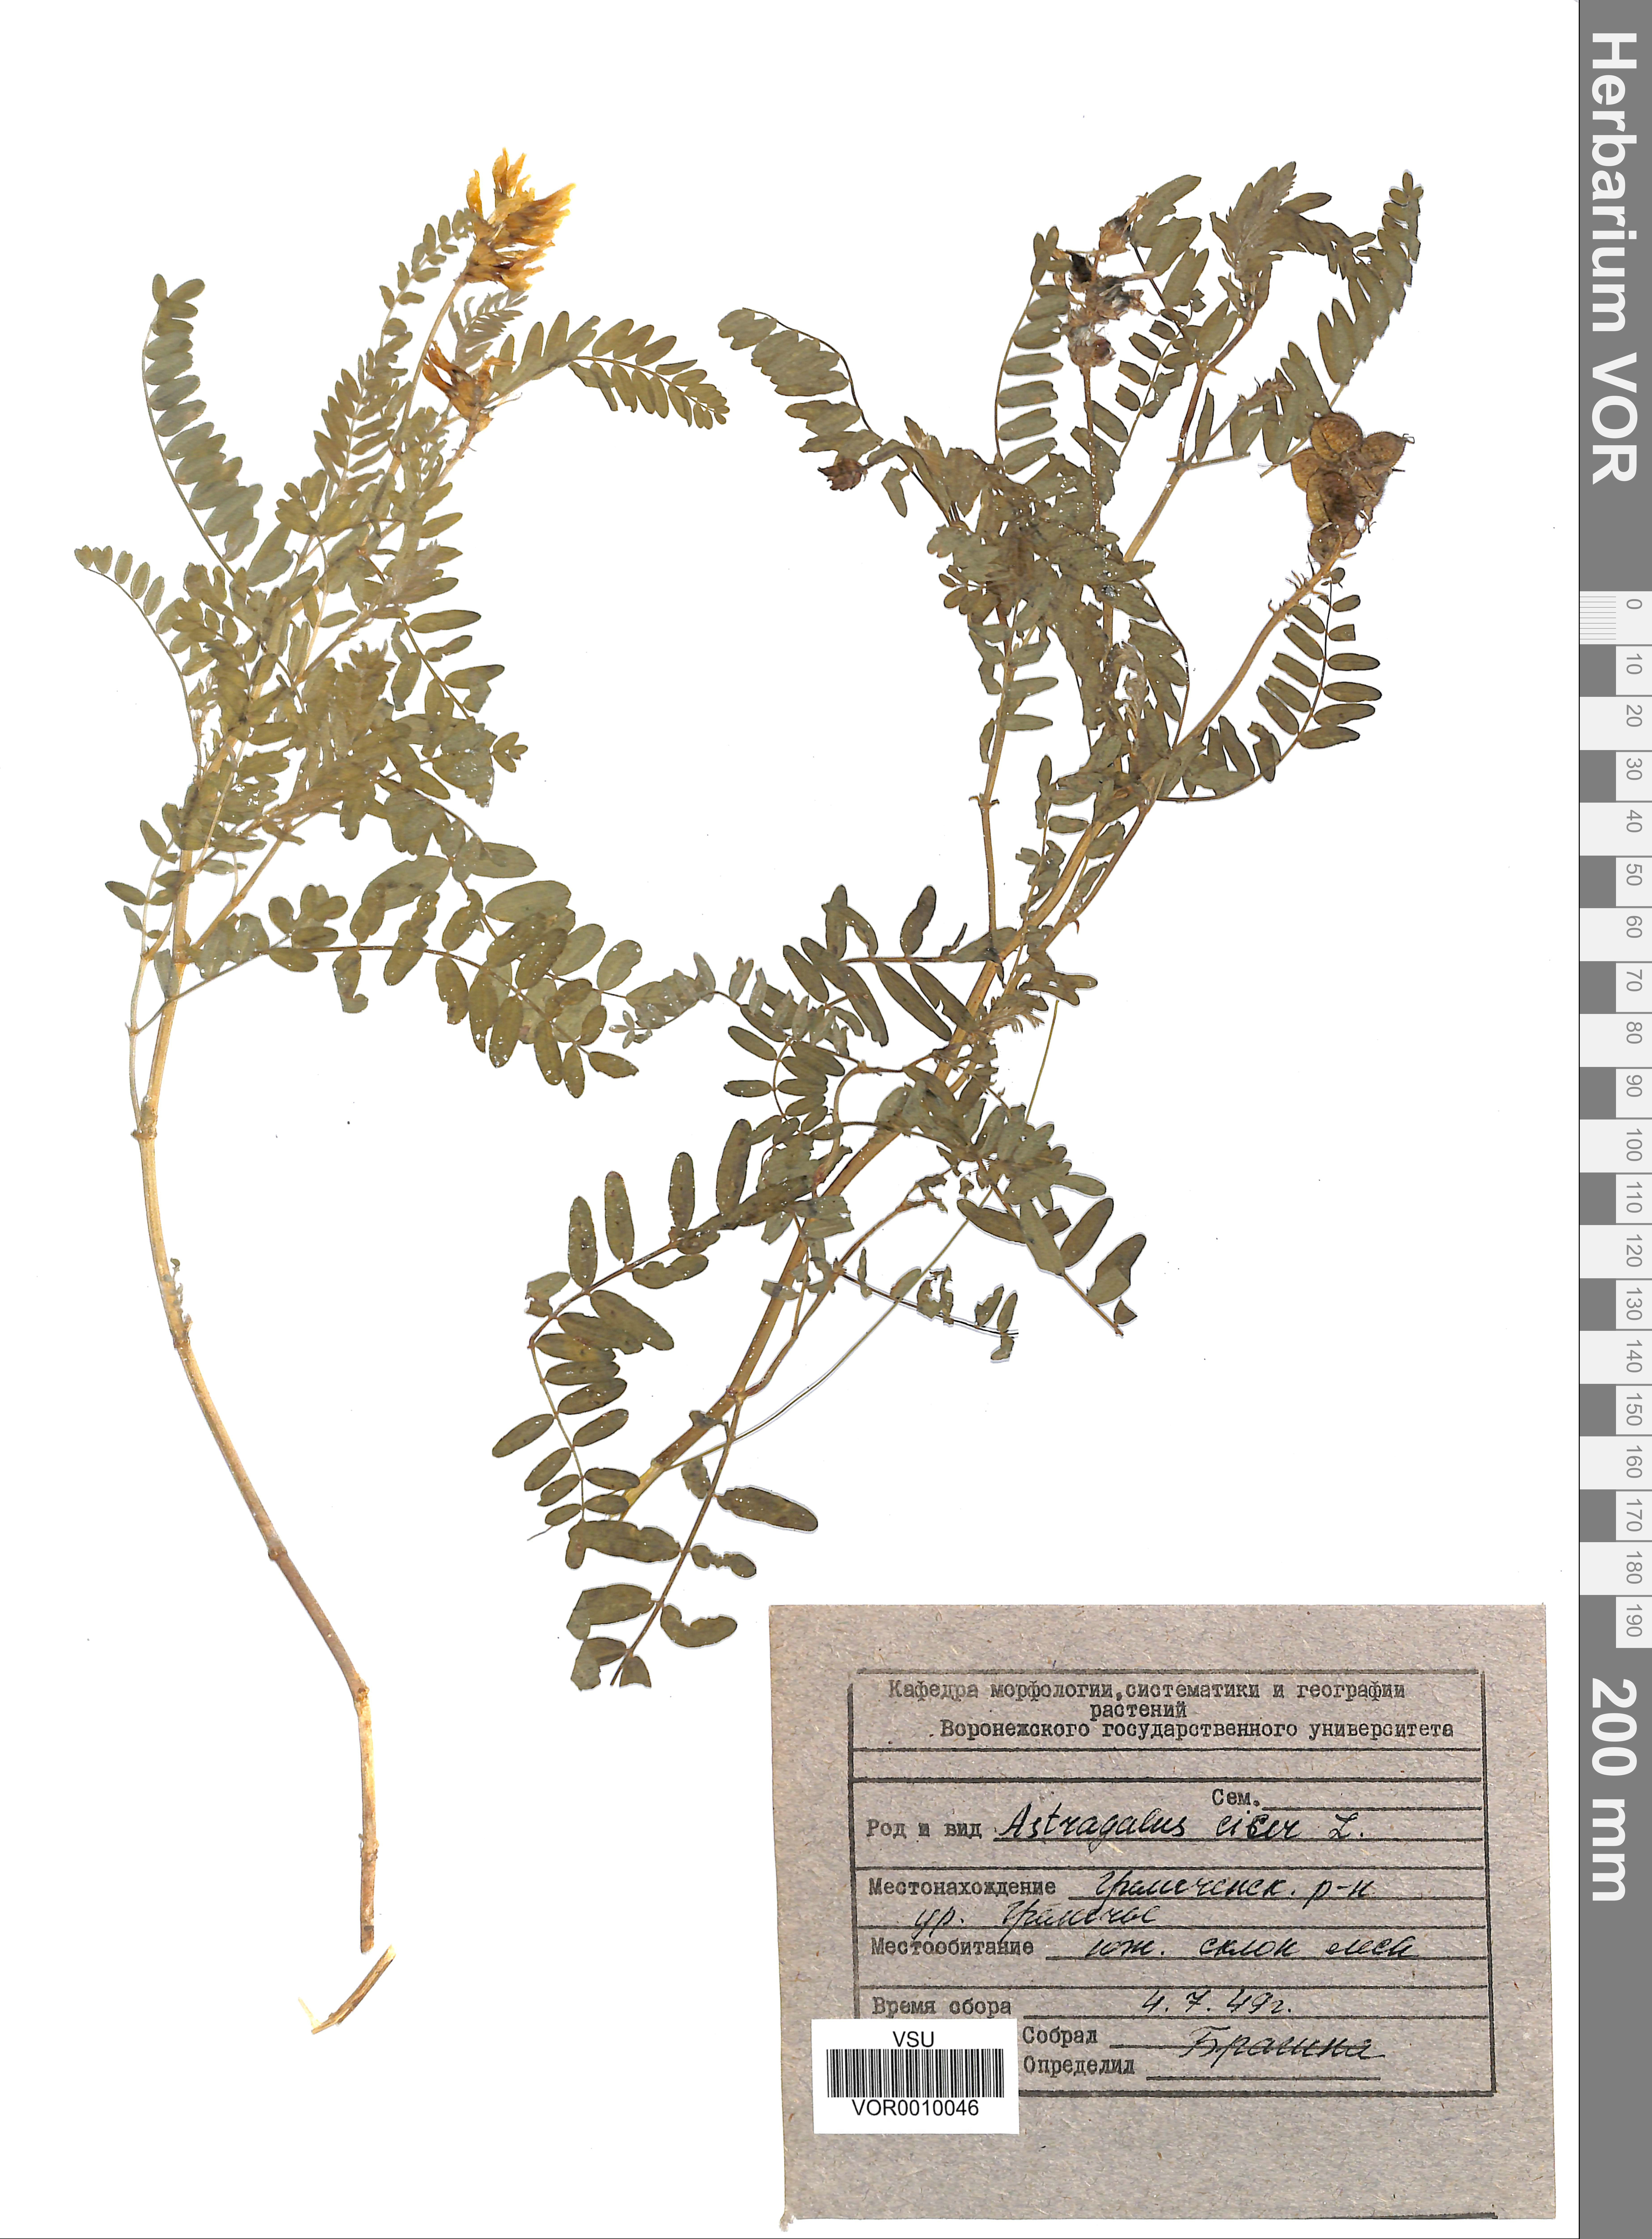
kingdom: Plantae
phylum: Tracheophyta
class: Magnoliopsida
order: Fabales
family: Fabaceae
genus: Astragalus
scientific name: Astragalus cicer
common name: Chick-pea milk-vetch
